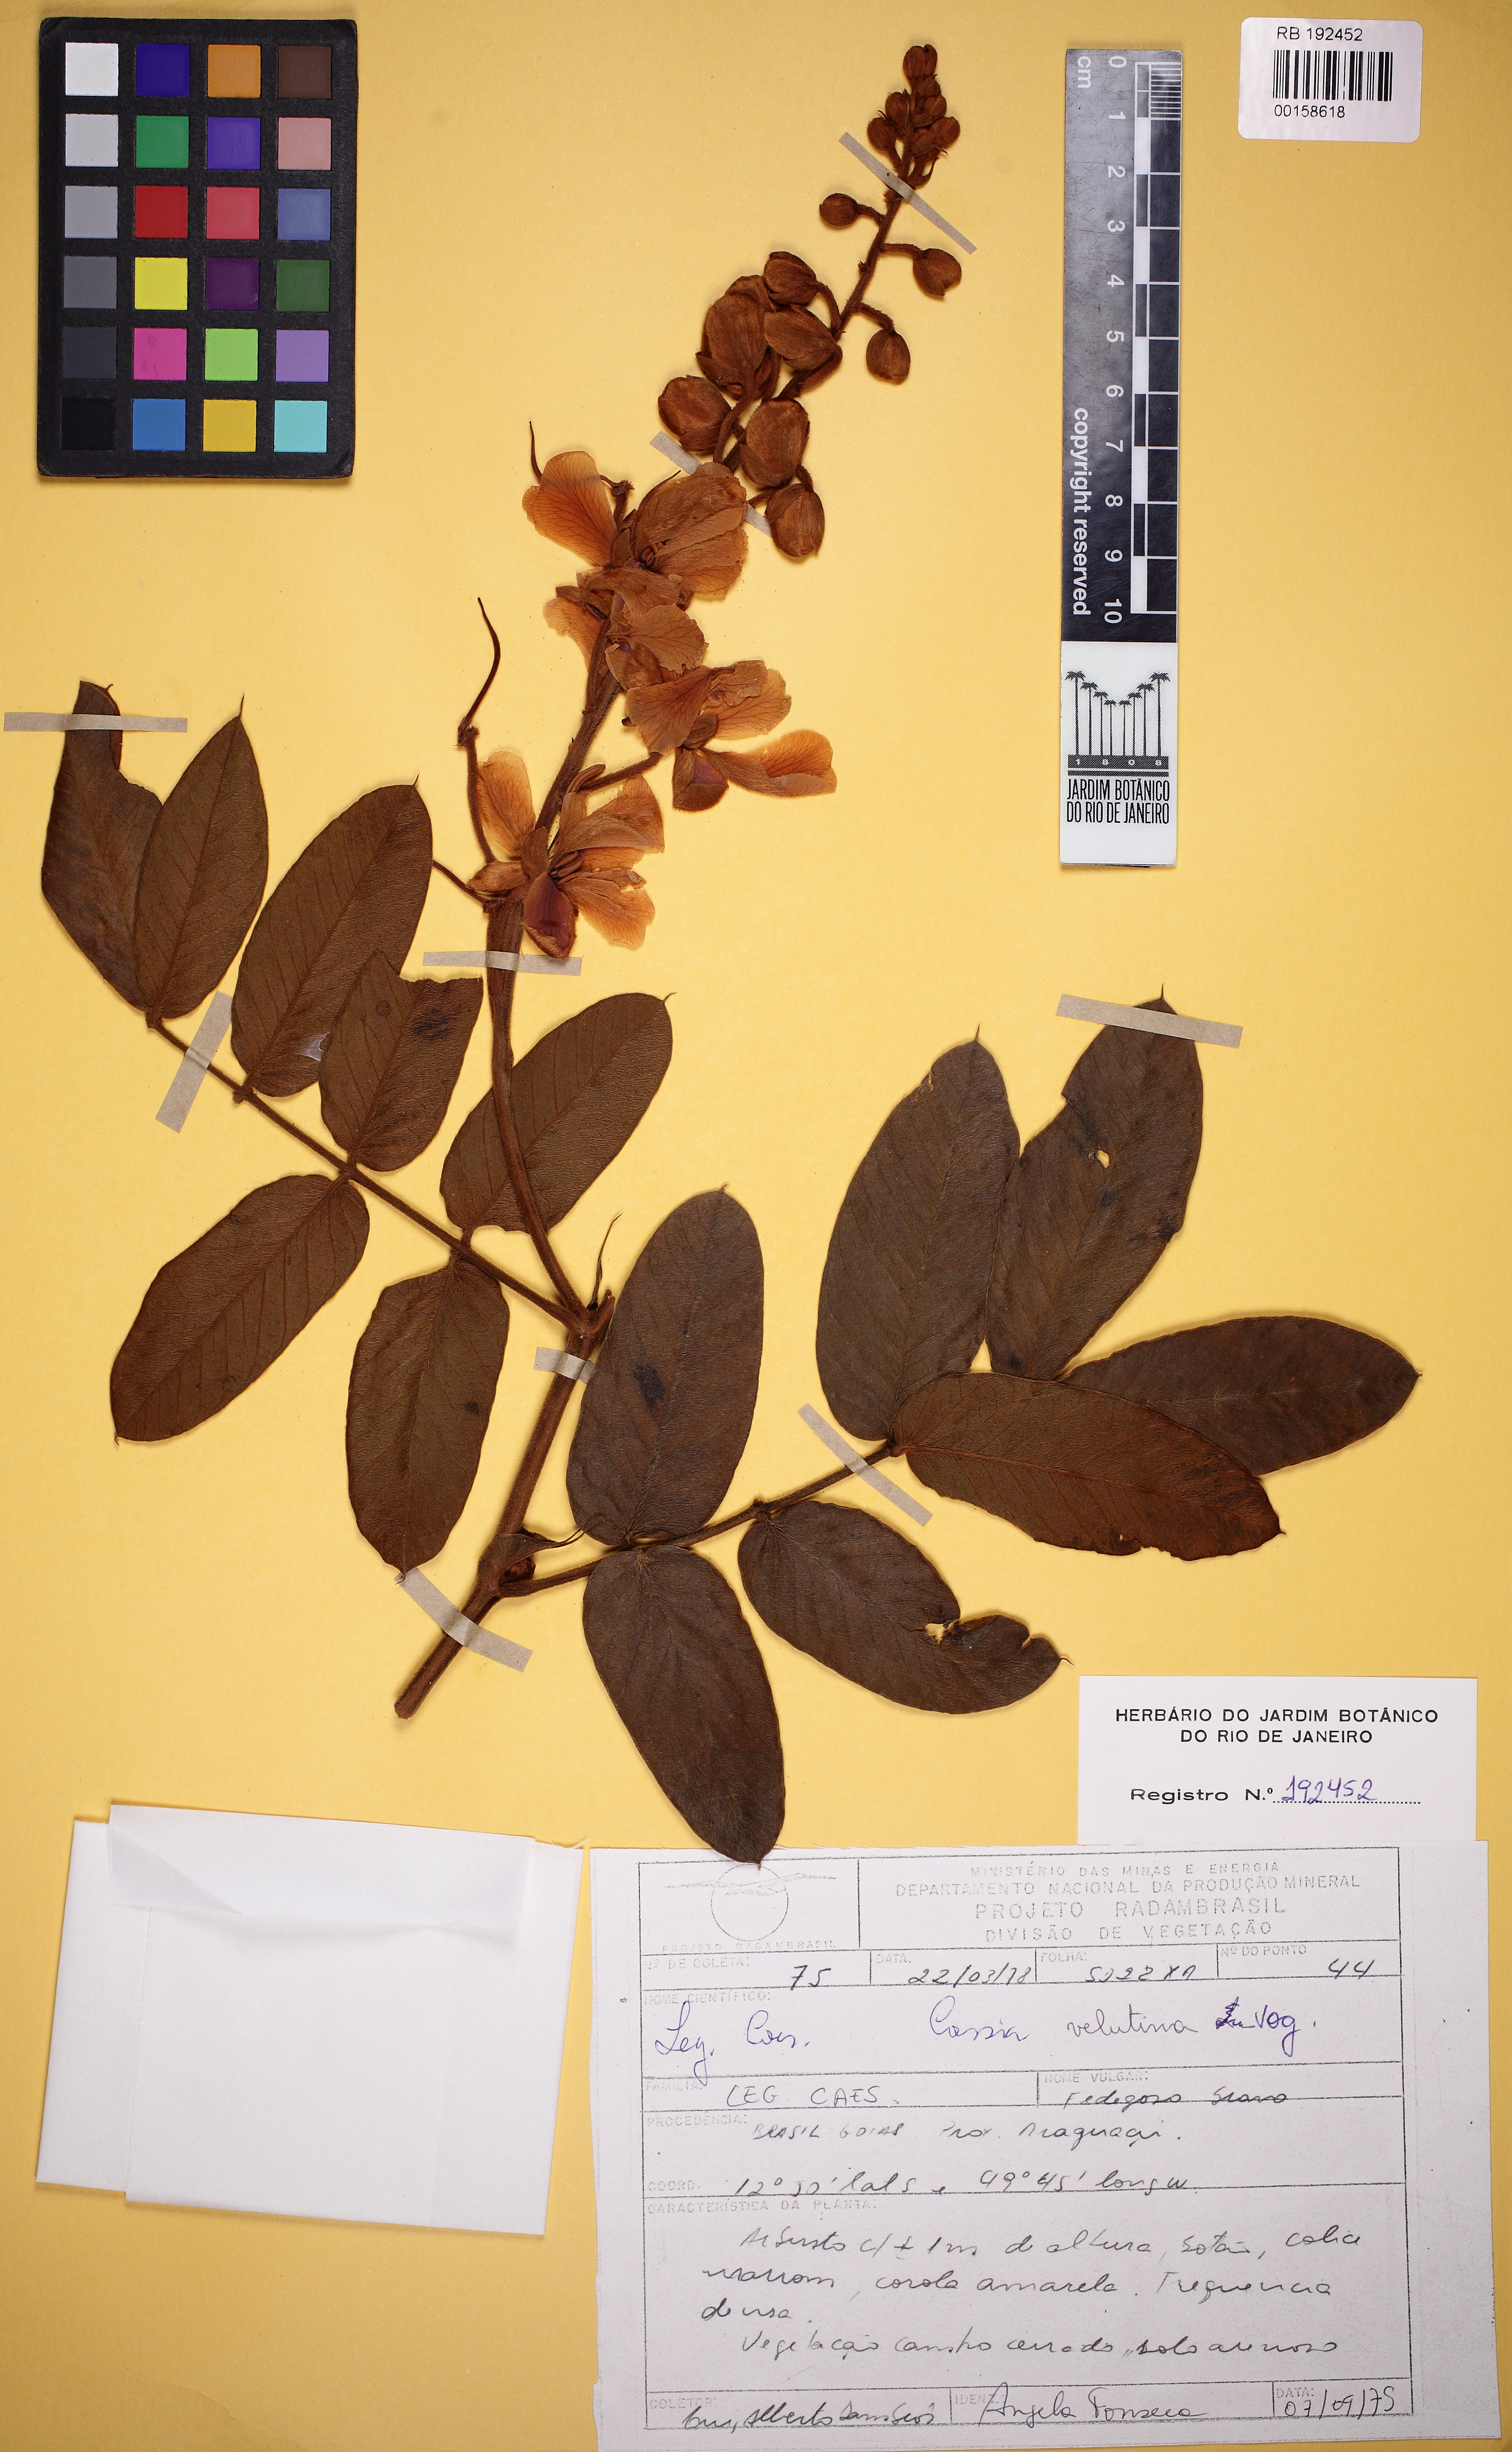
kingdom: Plantae
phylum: Tracheophyta
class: Magnoliopsida
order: Fabales
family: Fabaceae
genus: Senna
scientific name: Senna velutina
